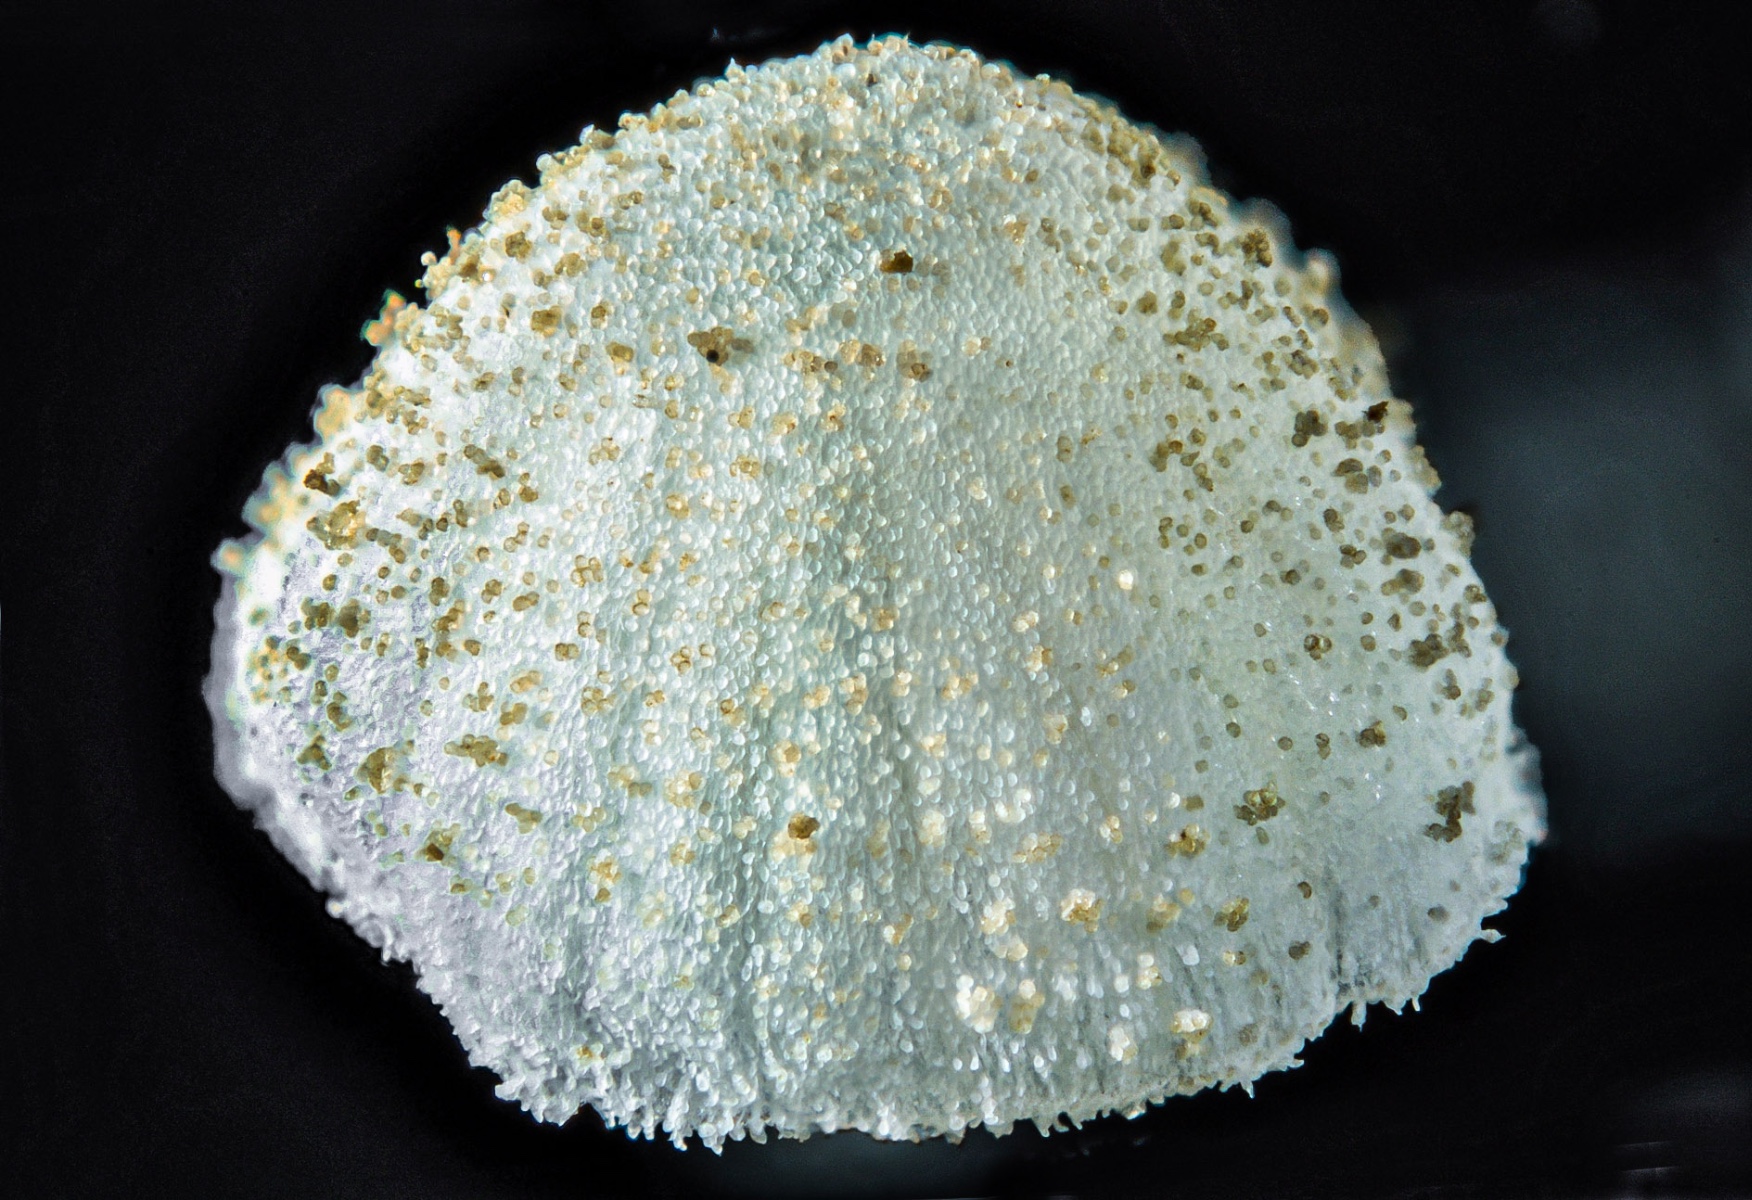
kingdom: Fungi
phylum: Basidiomycota
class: Agaricomycetes
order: Agaricales
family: Mycenaceae
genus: Mycena
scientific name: Mycena nucicola
